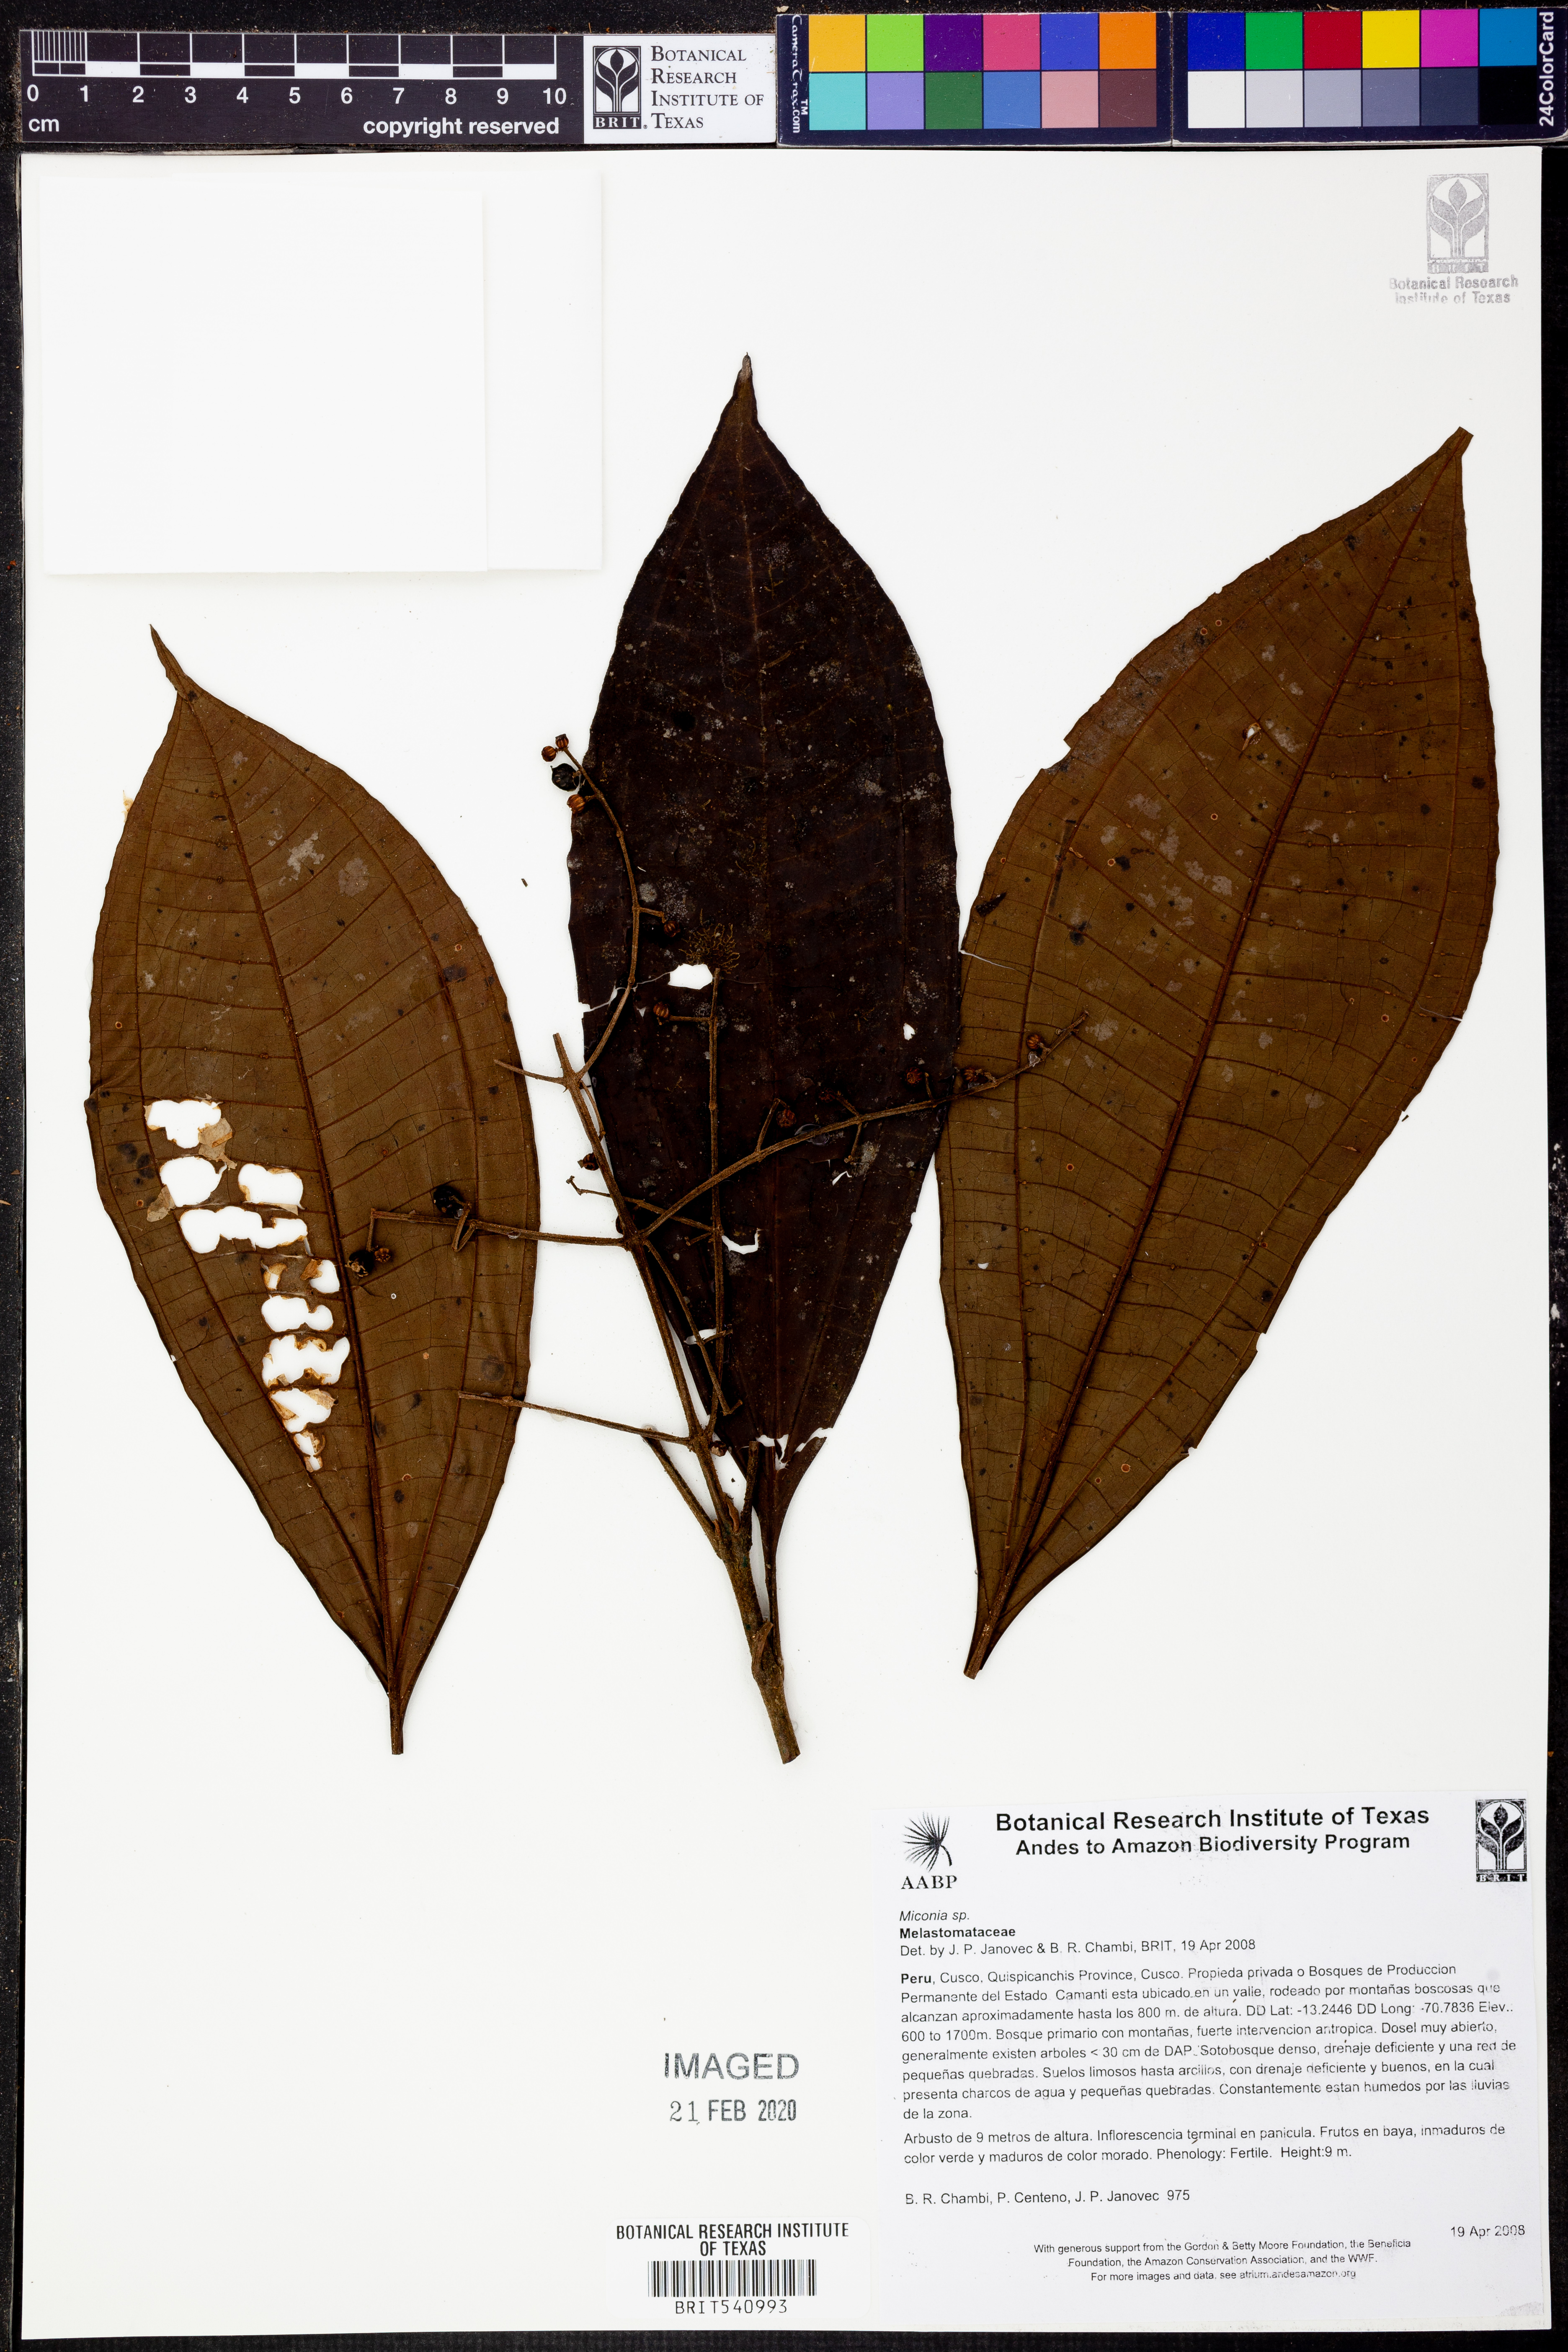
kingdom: Plantae
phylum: Tracheophyta
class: Magnoliopsida
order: Myrtales
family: Melastomataceae
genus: Miconia
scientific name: Miconia
